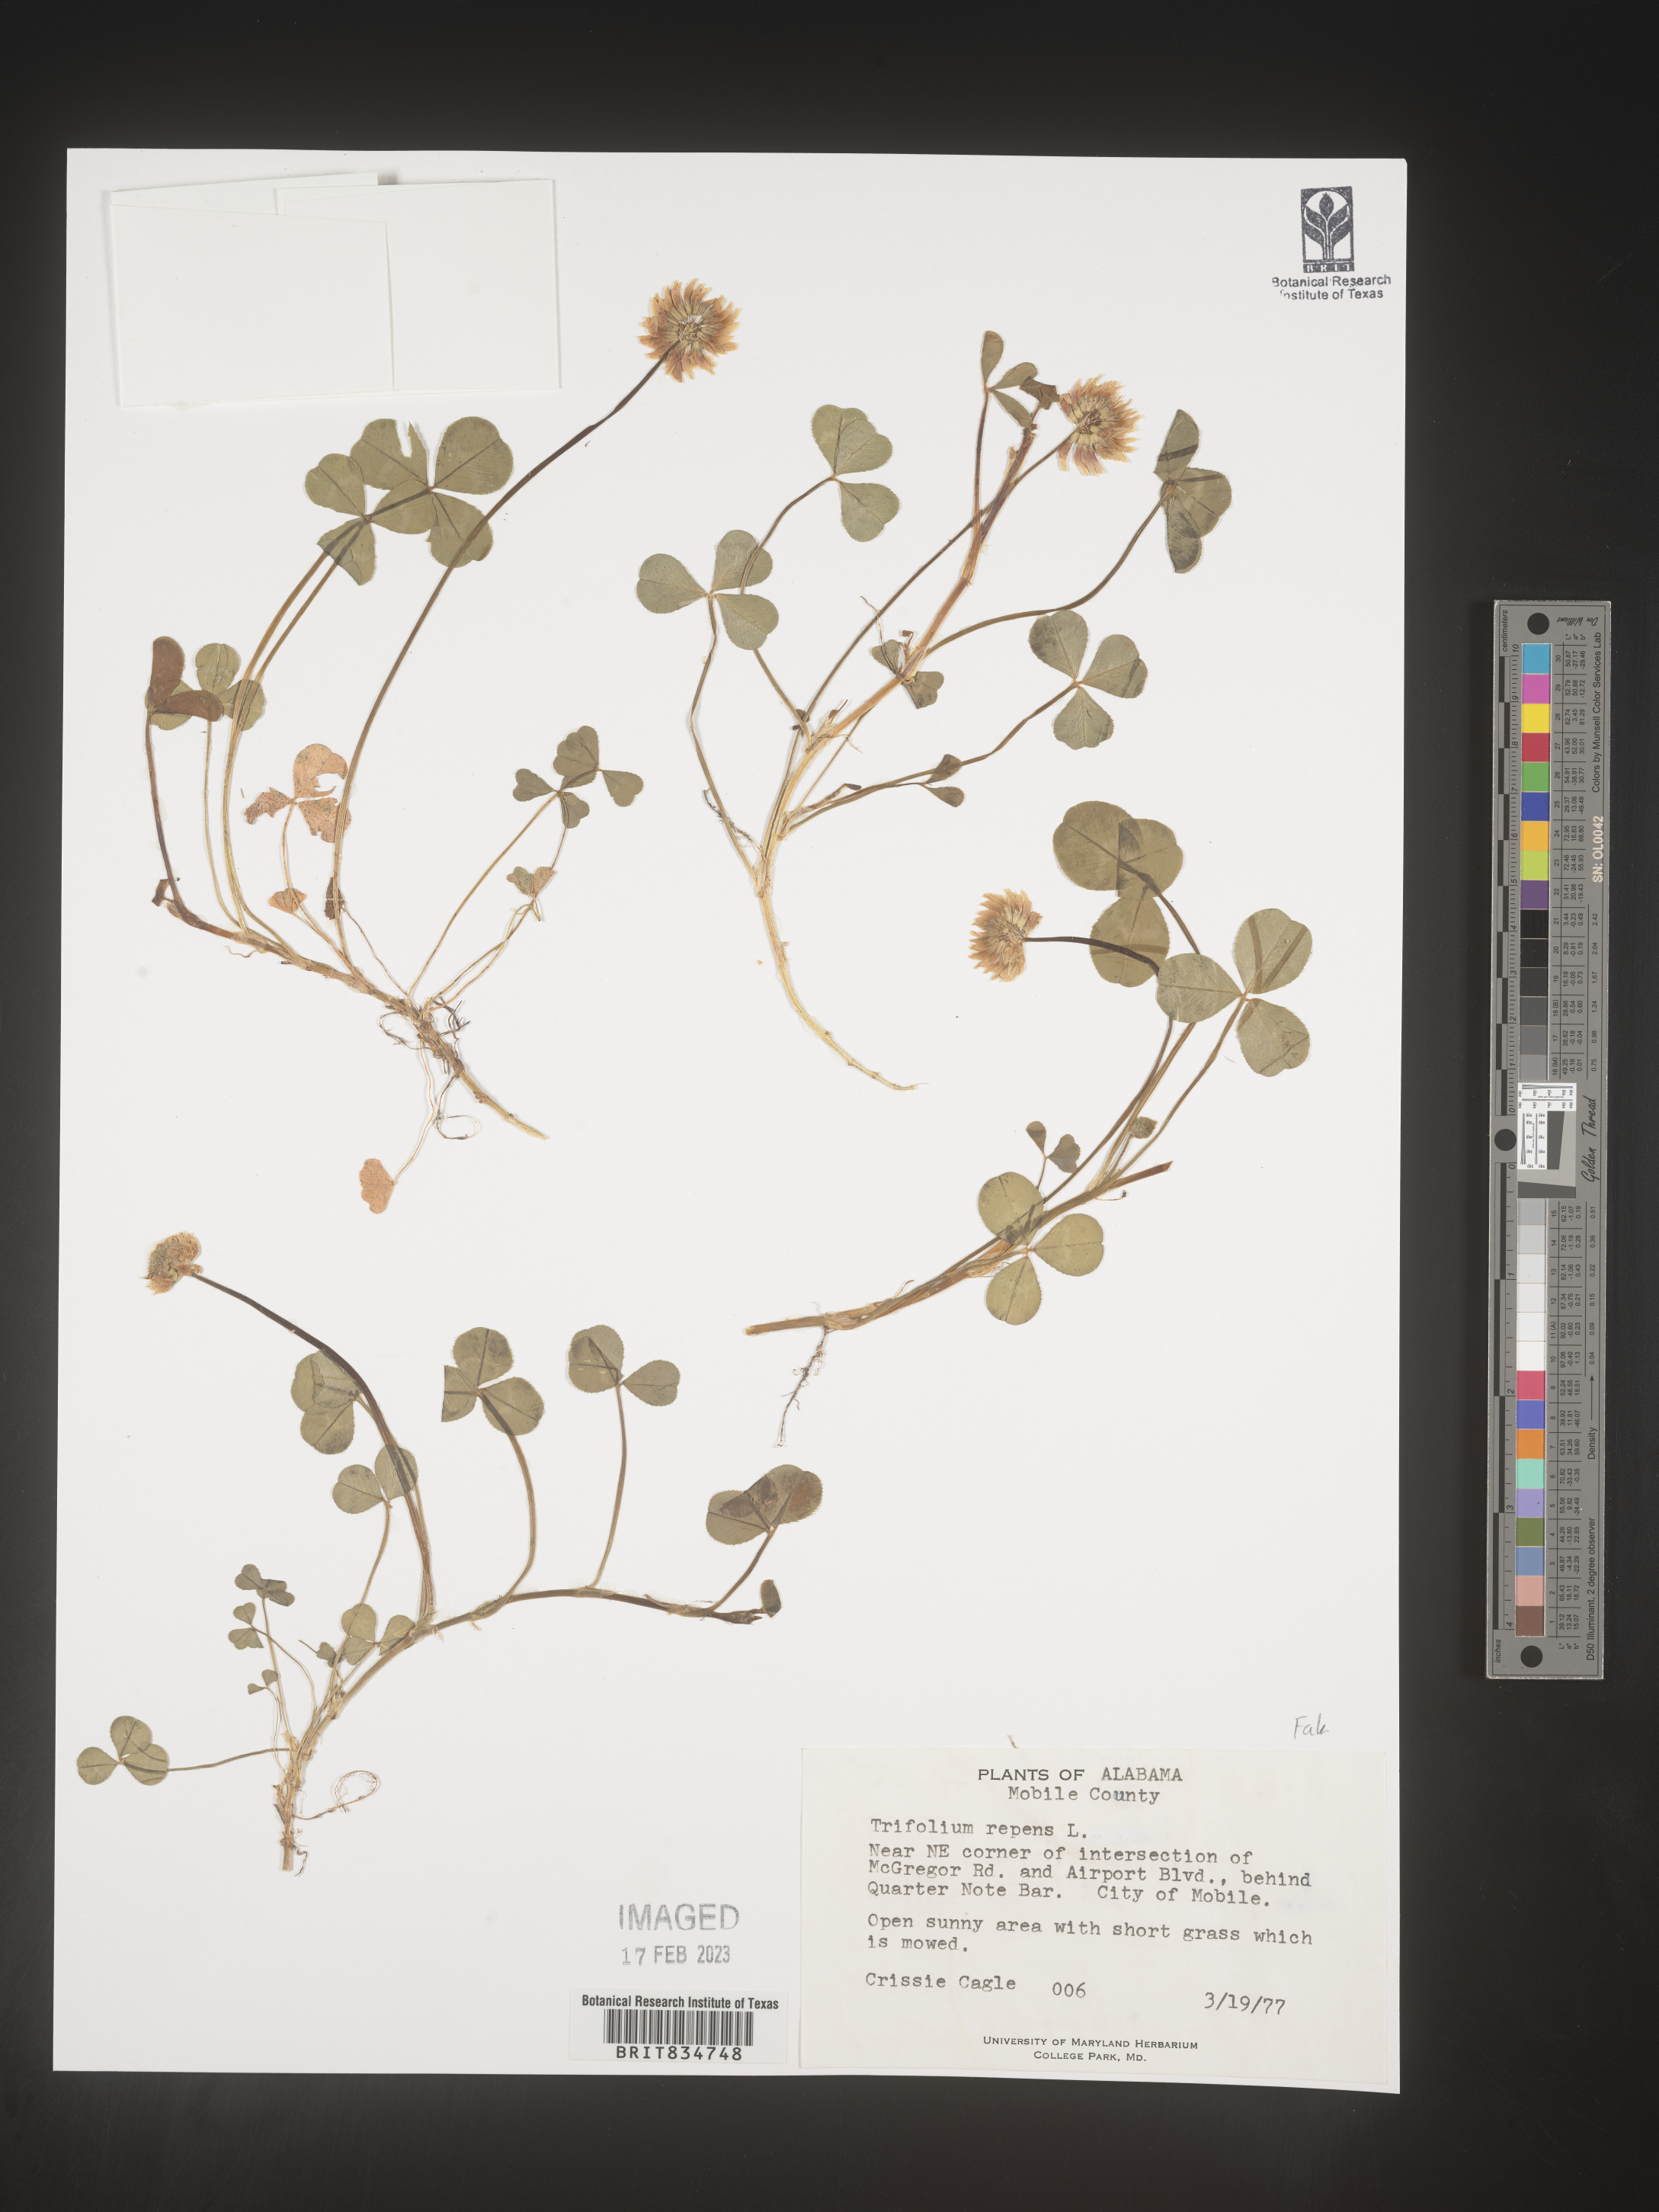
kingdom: Plantae
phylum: Tracheophyta
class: Magnoliopsida
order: Fabales
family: Fabaceae
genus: Trifolium
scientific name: Trifolium repens
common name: White clover
